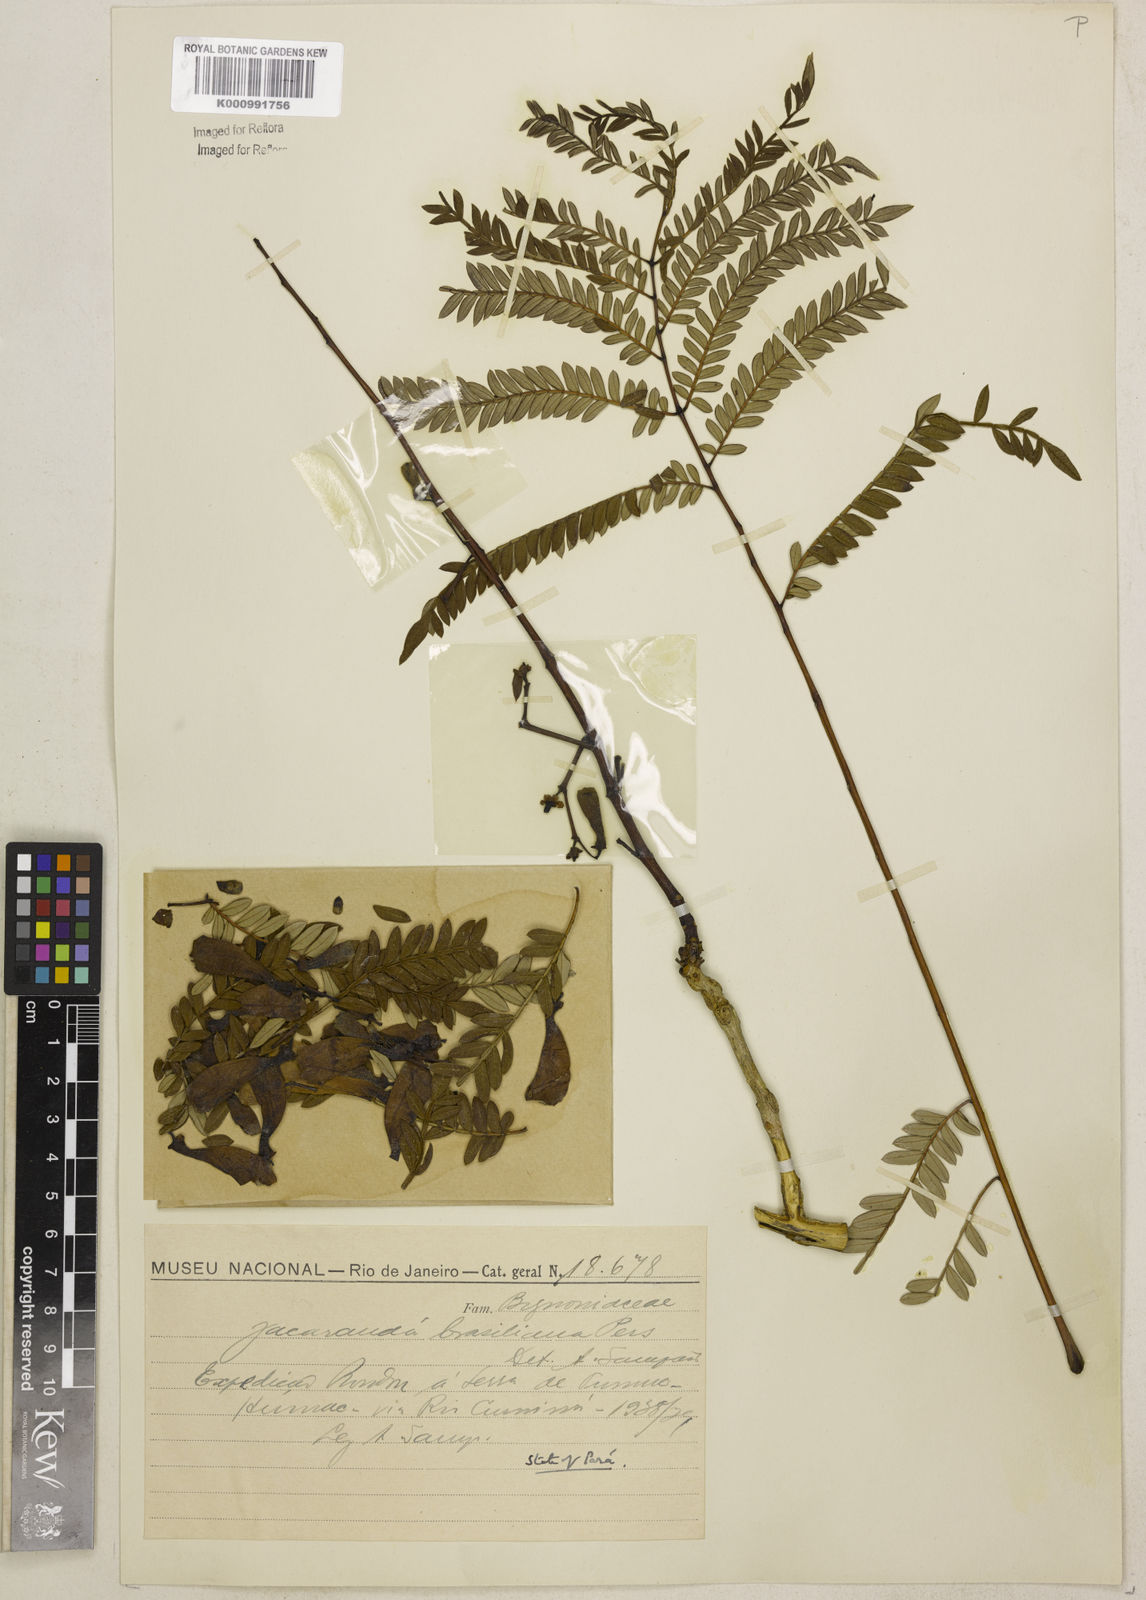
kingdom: Plantae
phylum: Tracheophyta
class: Magnoliopsida
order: Lamiales
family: Bignoniaceae
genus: Jacaranda
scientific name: Jacaranda brasiliana
